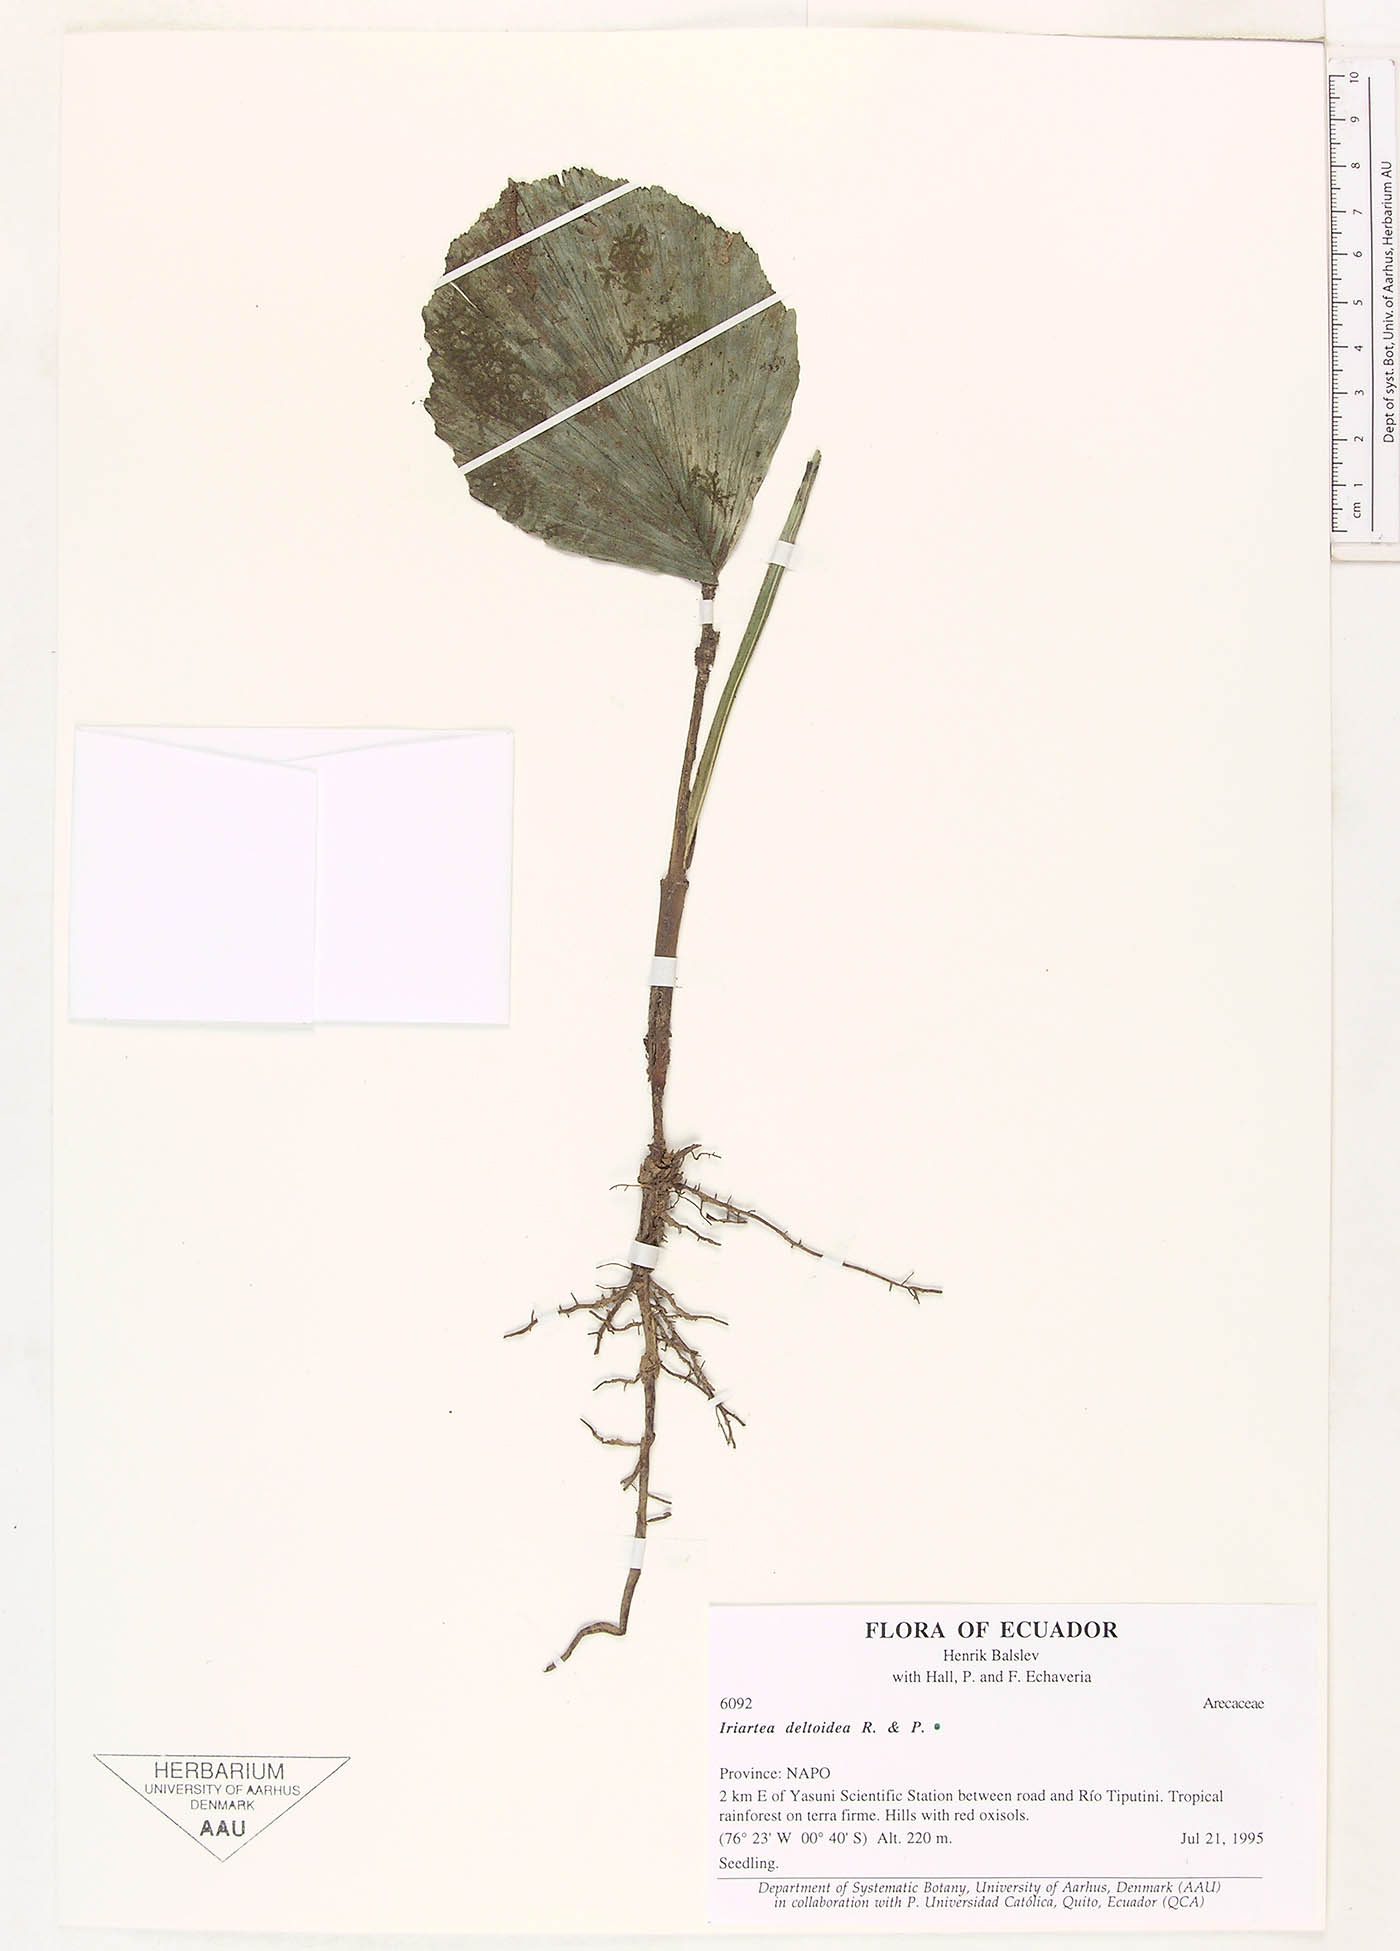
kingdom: Plantae
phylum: Tracheophyta
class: Liliopsida
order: Arecales
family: Arecaceae
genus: Iriartea
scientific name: Iriartea deltoidea
